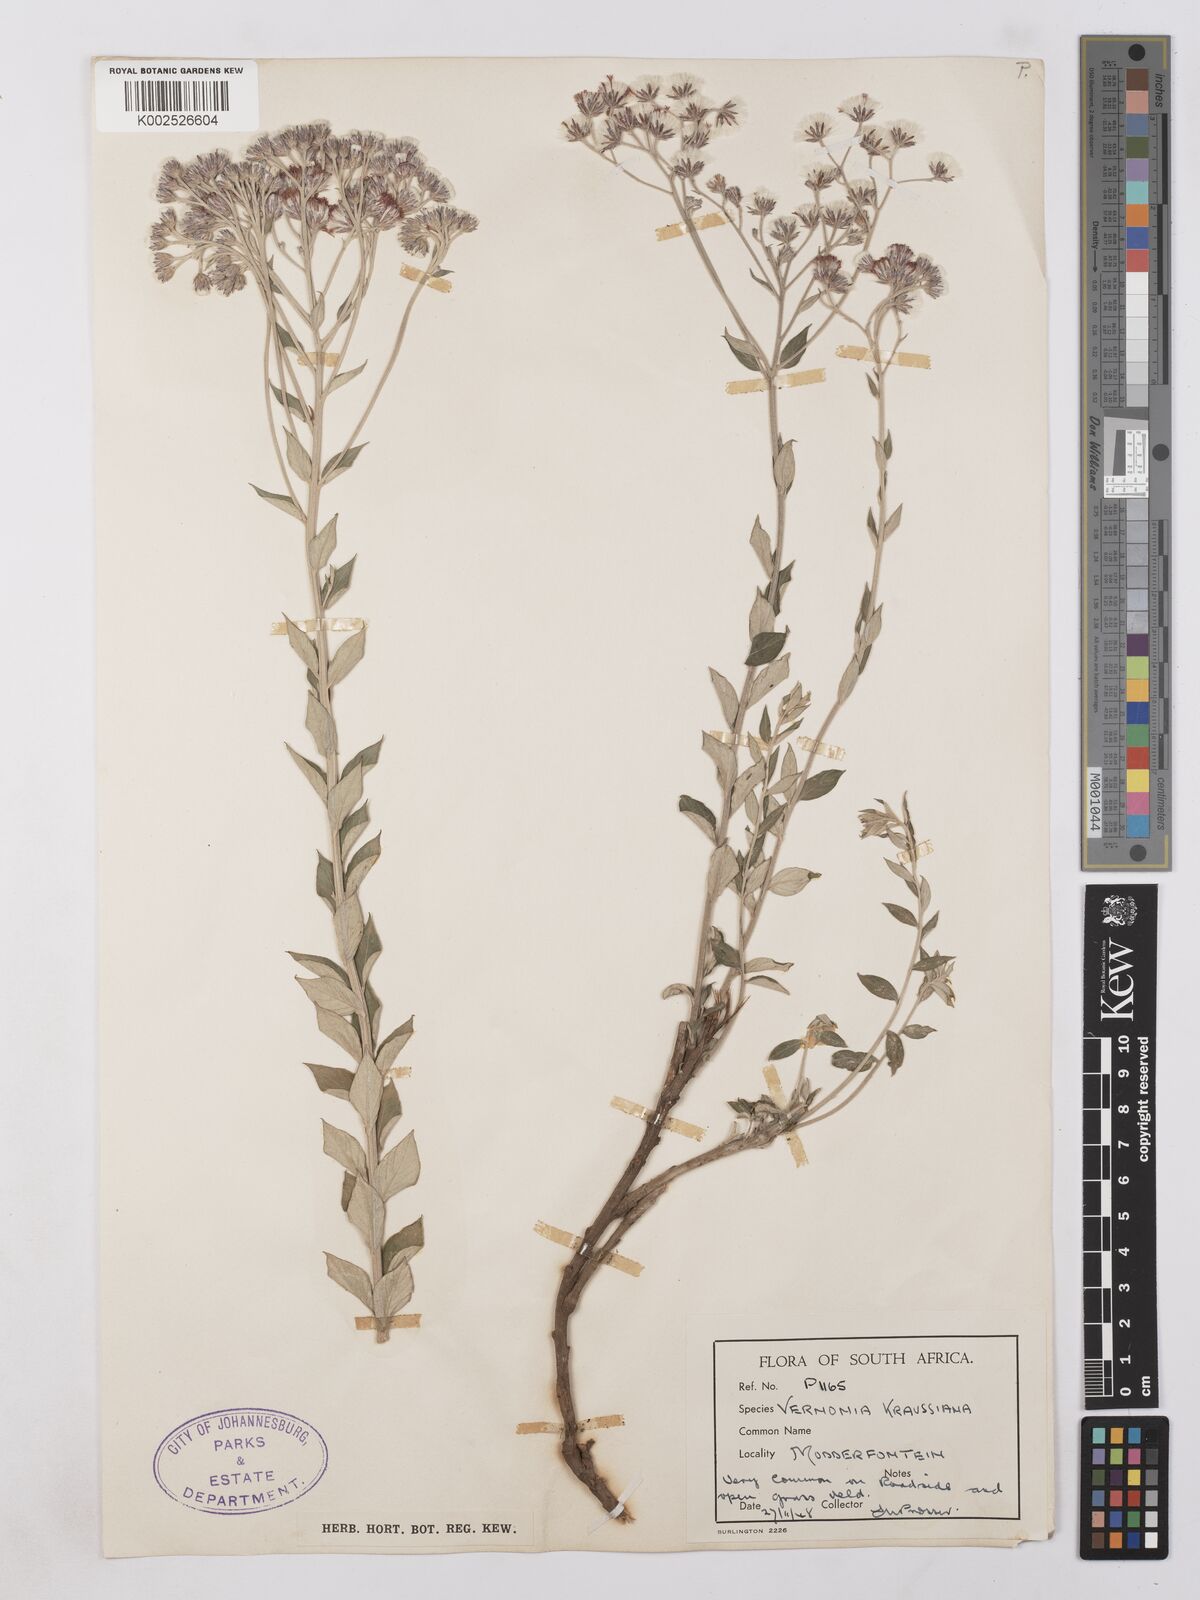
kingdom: Plantae
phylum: Tracheophyta
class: Magnoliopsida
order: Asterales
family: Asteraceae
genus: Lepidaploa
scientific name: Lepidaploa aurea
